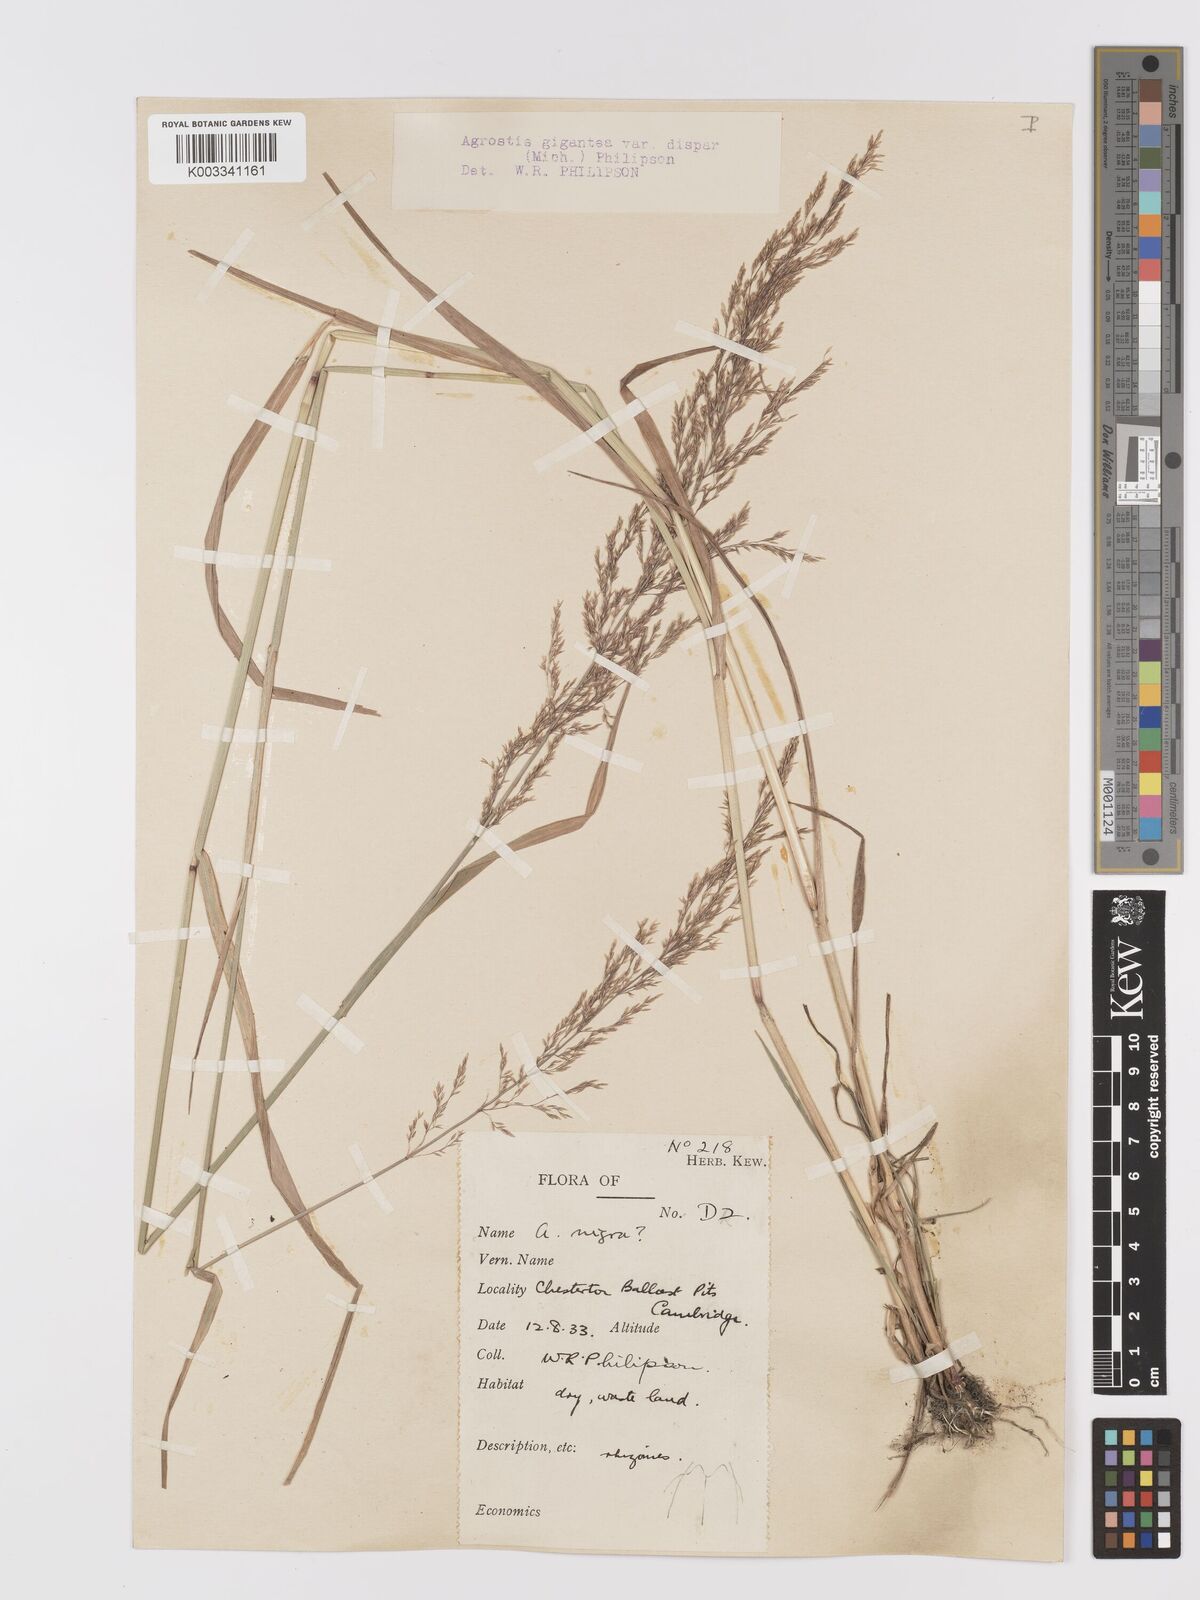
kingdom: Plantae
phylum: Tracheophyta
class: Liliopsida
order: Poales
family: Poaceae
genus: Agrostis
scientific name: Agrostis gigantea
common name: Black bent
